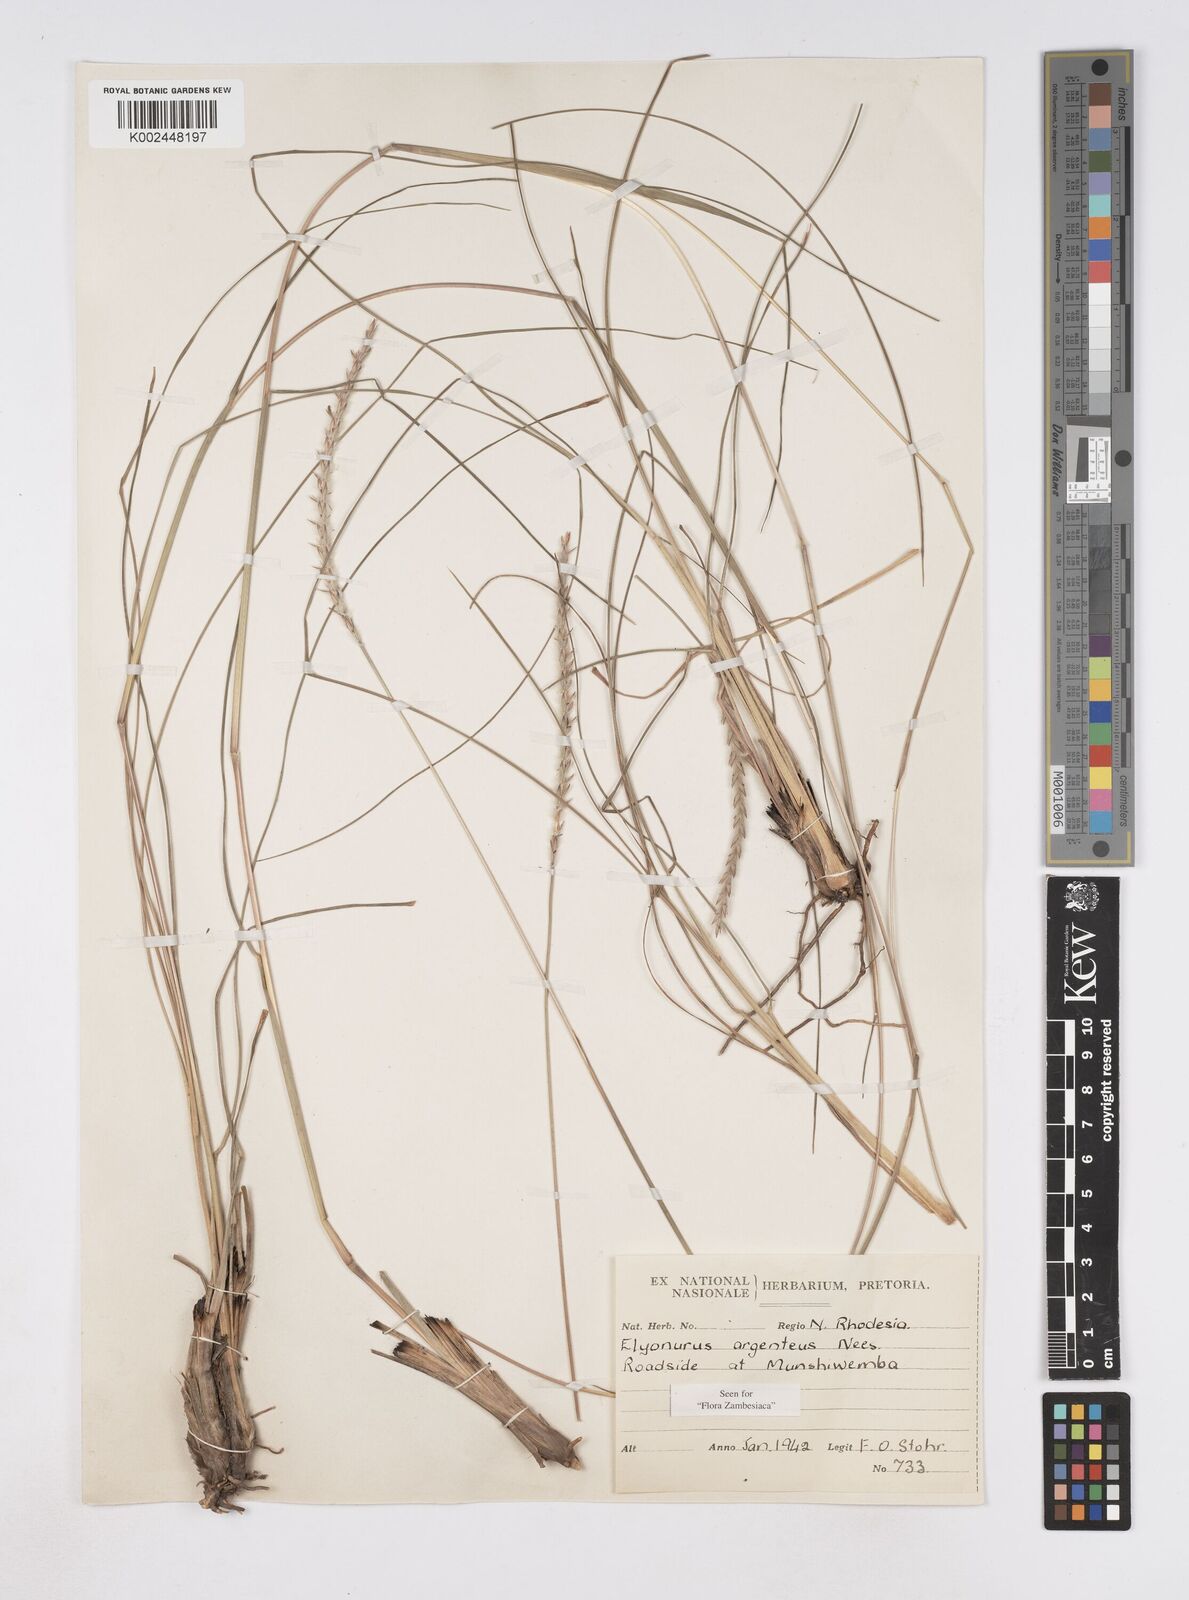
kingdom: Plantae
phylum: Tracheophyta
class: Liliopsida
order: Poales
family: Poaceae
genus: Elionurus
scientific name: Elionurus muticus
